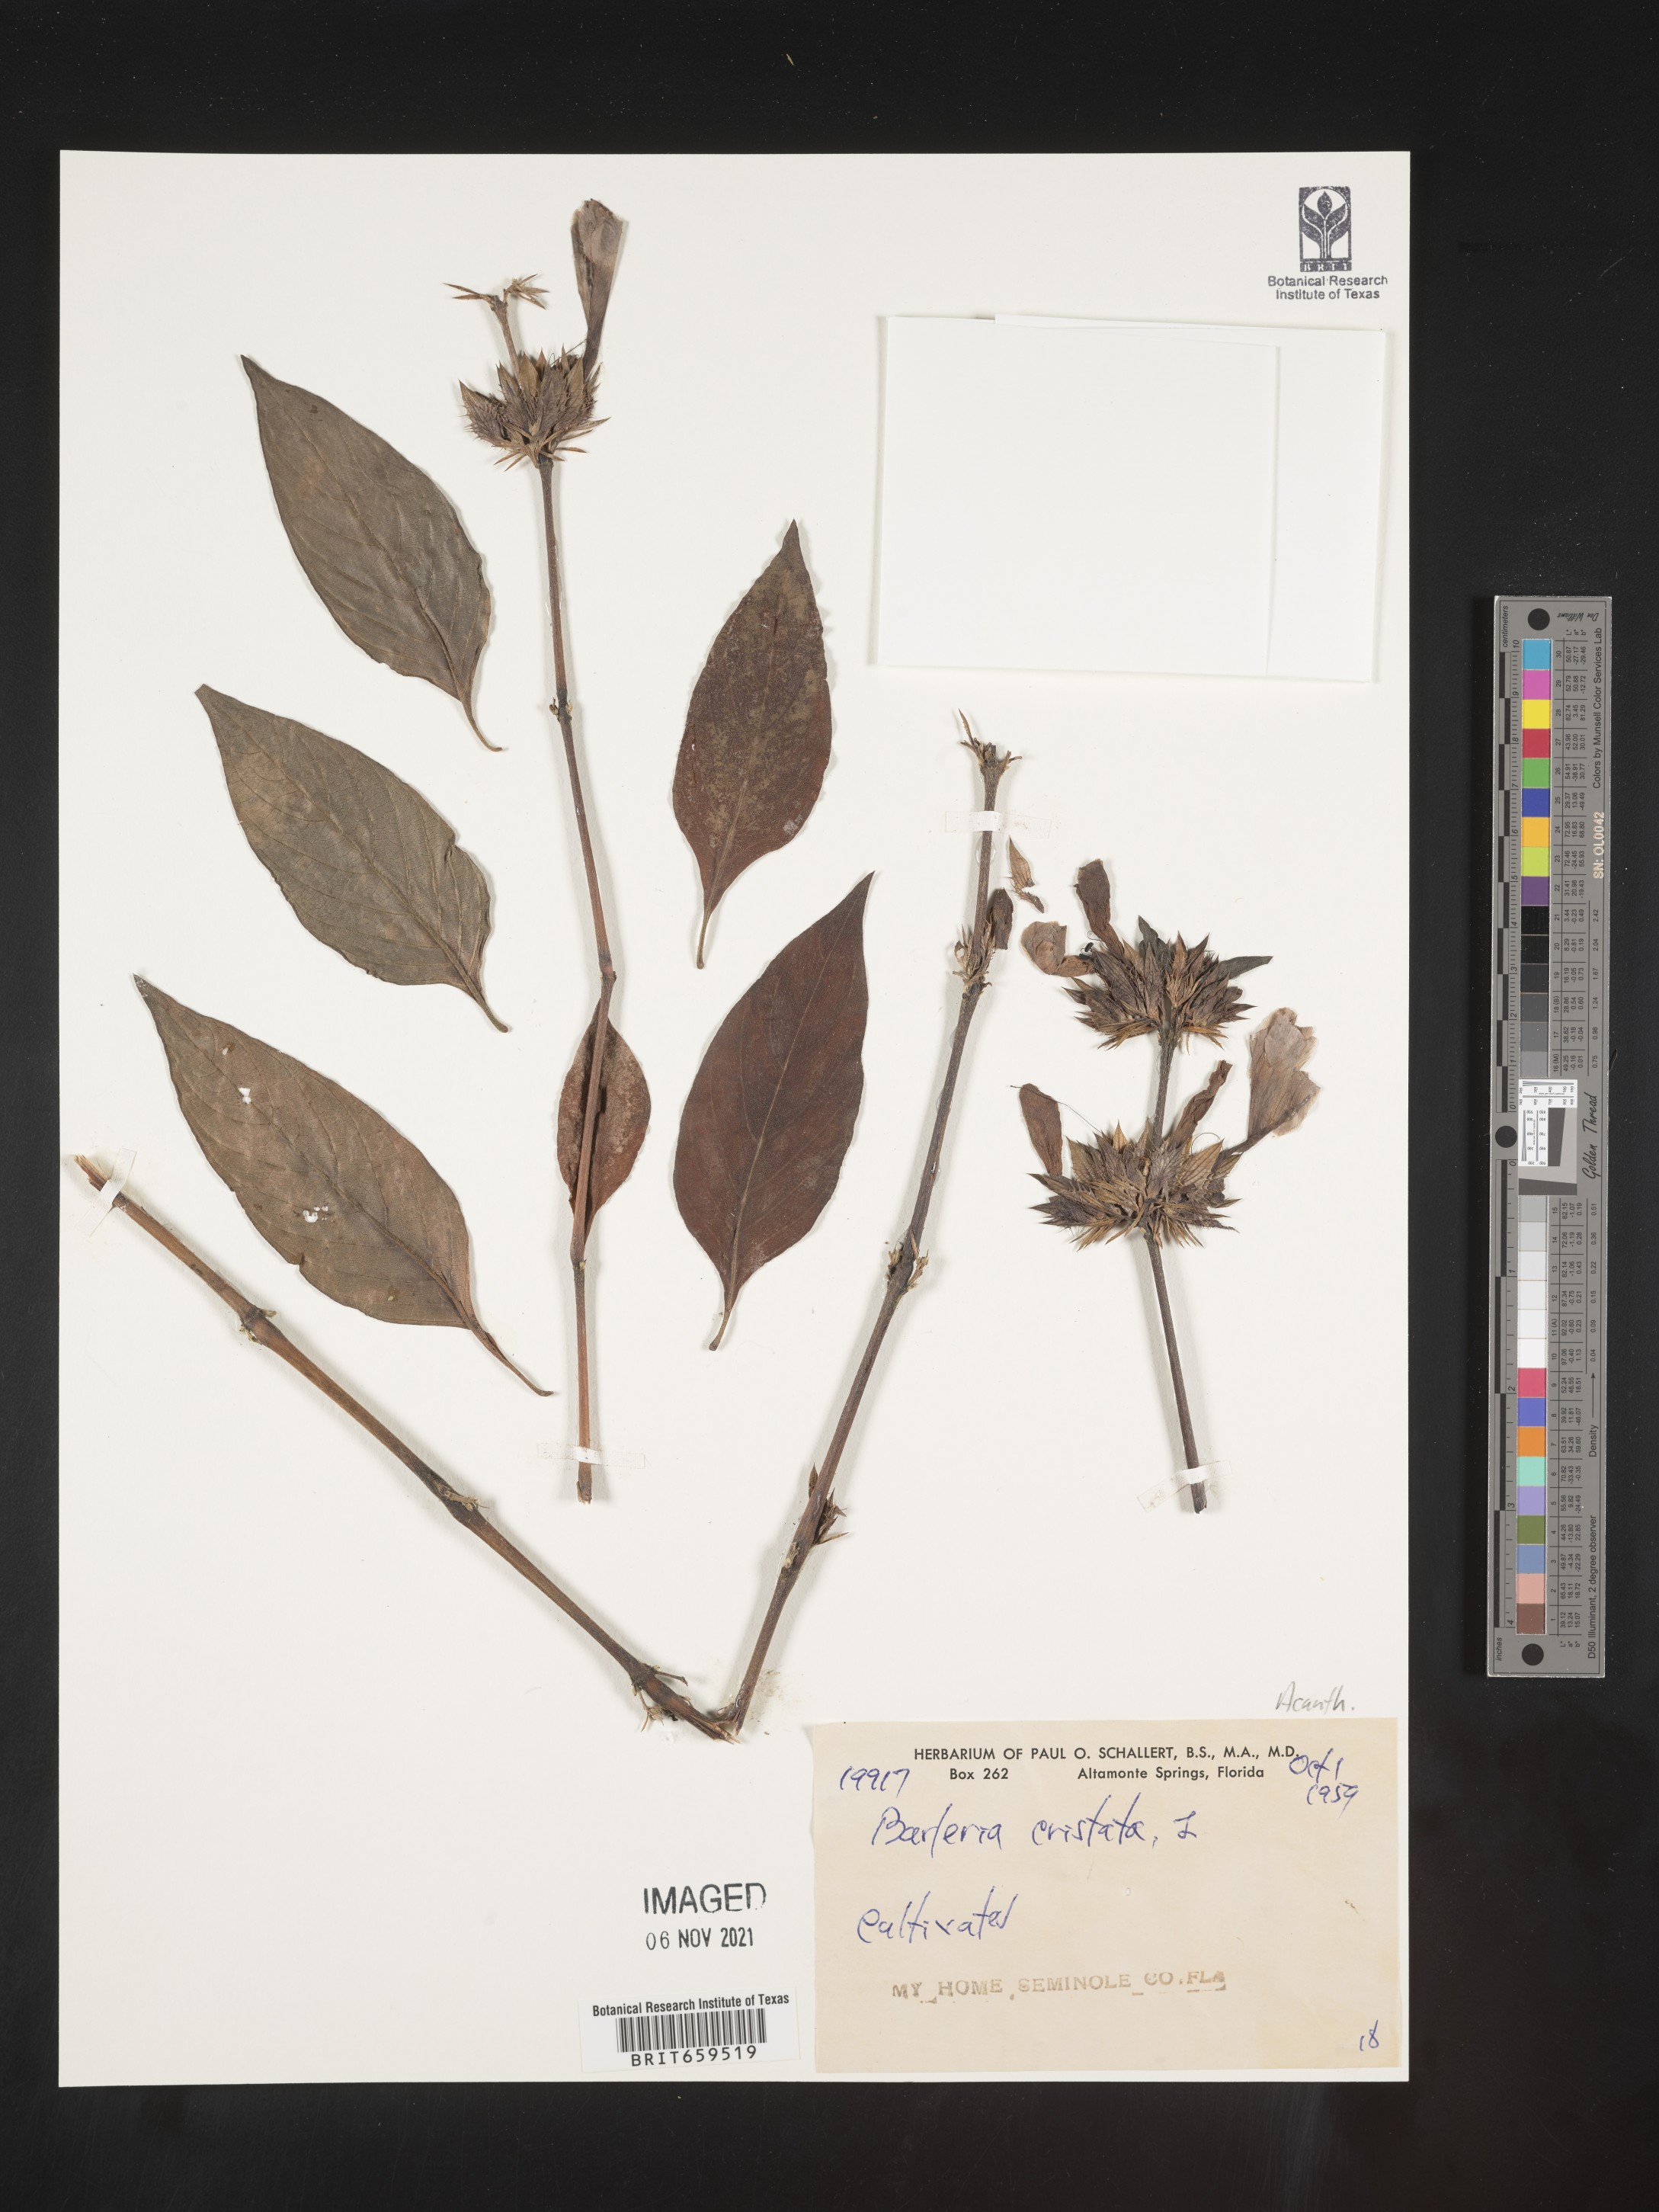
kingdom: Plantae
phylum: Tracheophyta
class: Magnoliopsida
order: Lamiales
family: Acanthaceae
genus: Barleria
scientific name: Barleria
